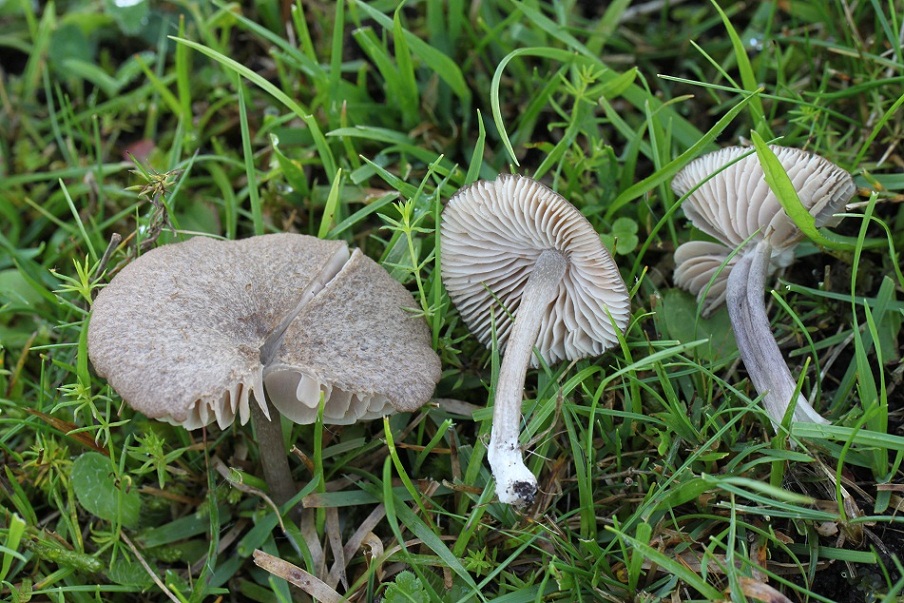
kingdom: Fungi
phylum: Basidiomycota
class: Agaricomycetes
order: Agaricales
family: Entolomataceae
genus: Entoloma
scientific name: Entoloma griseocyaneum
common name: gråblå rødblad
